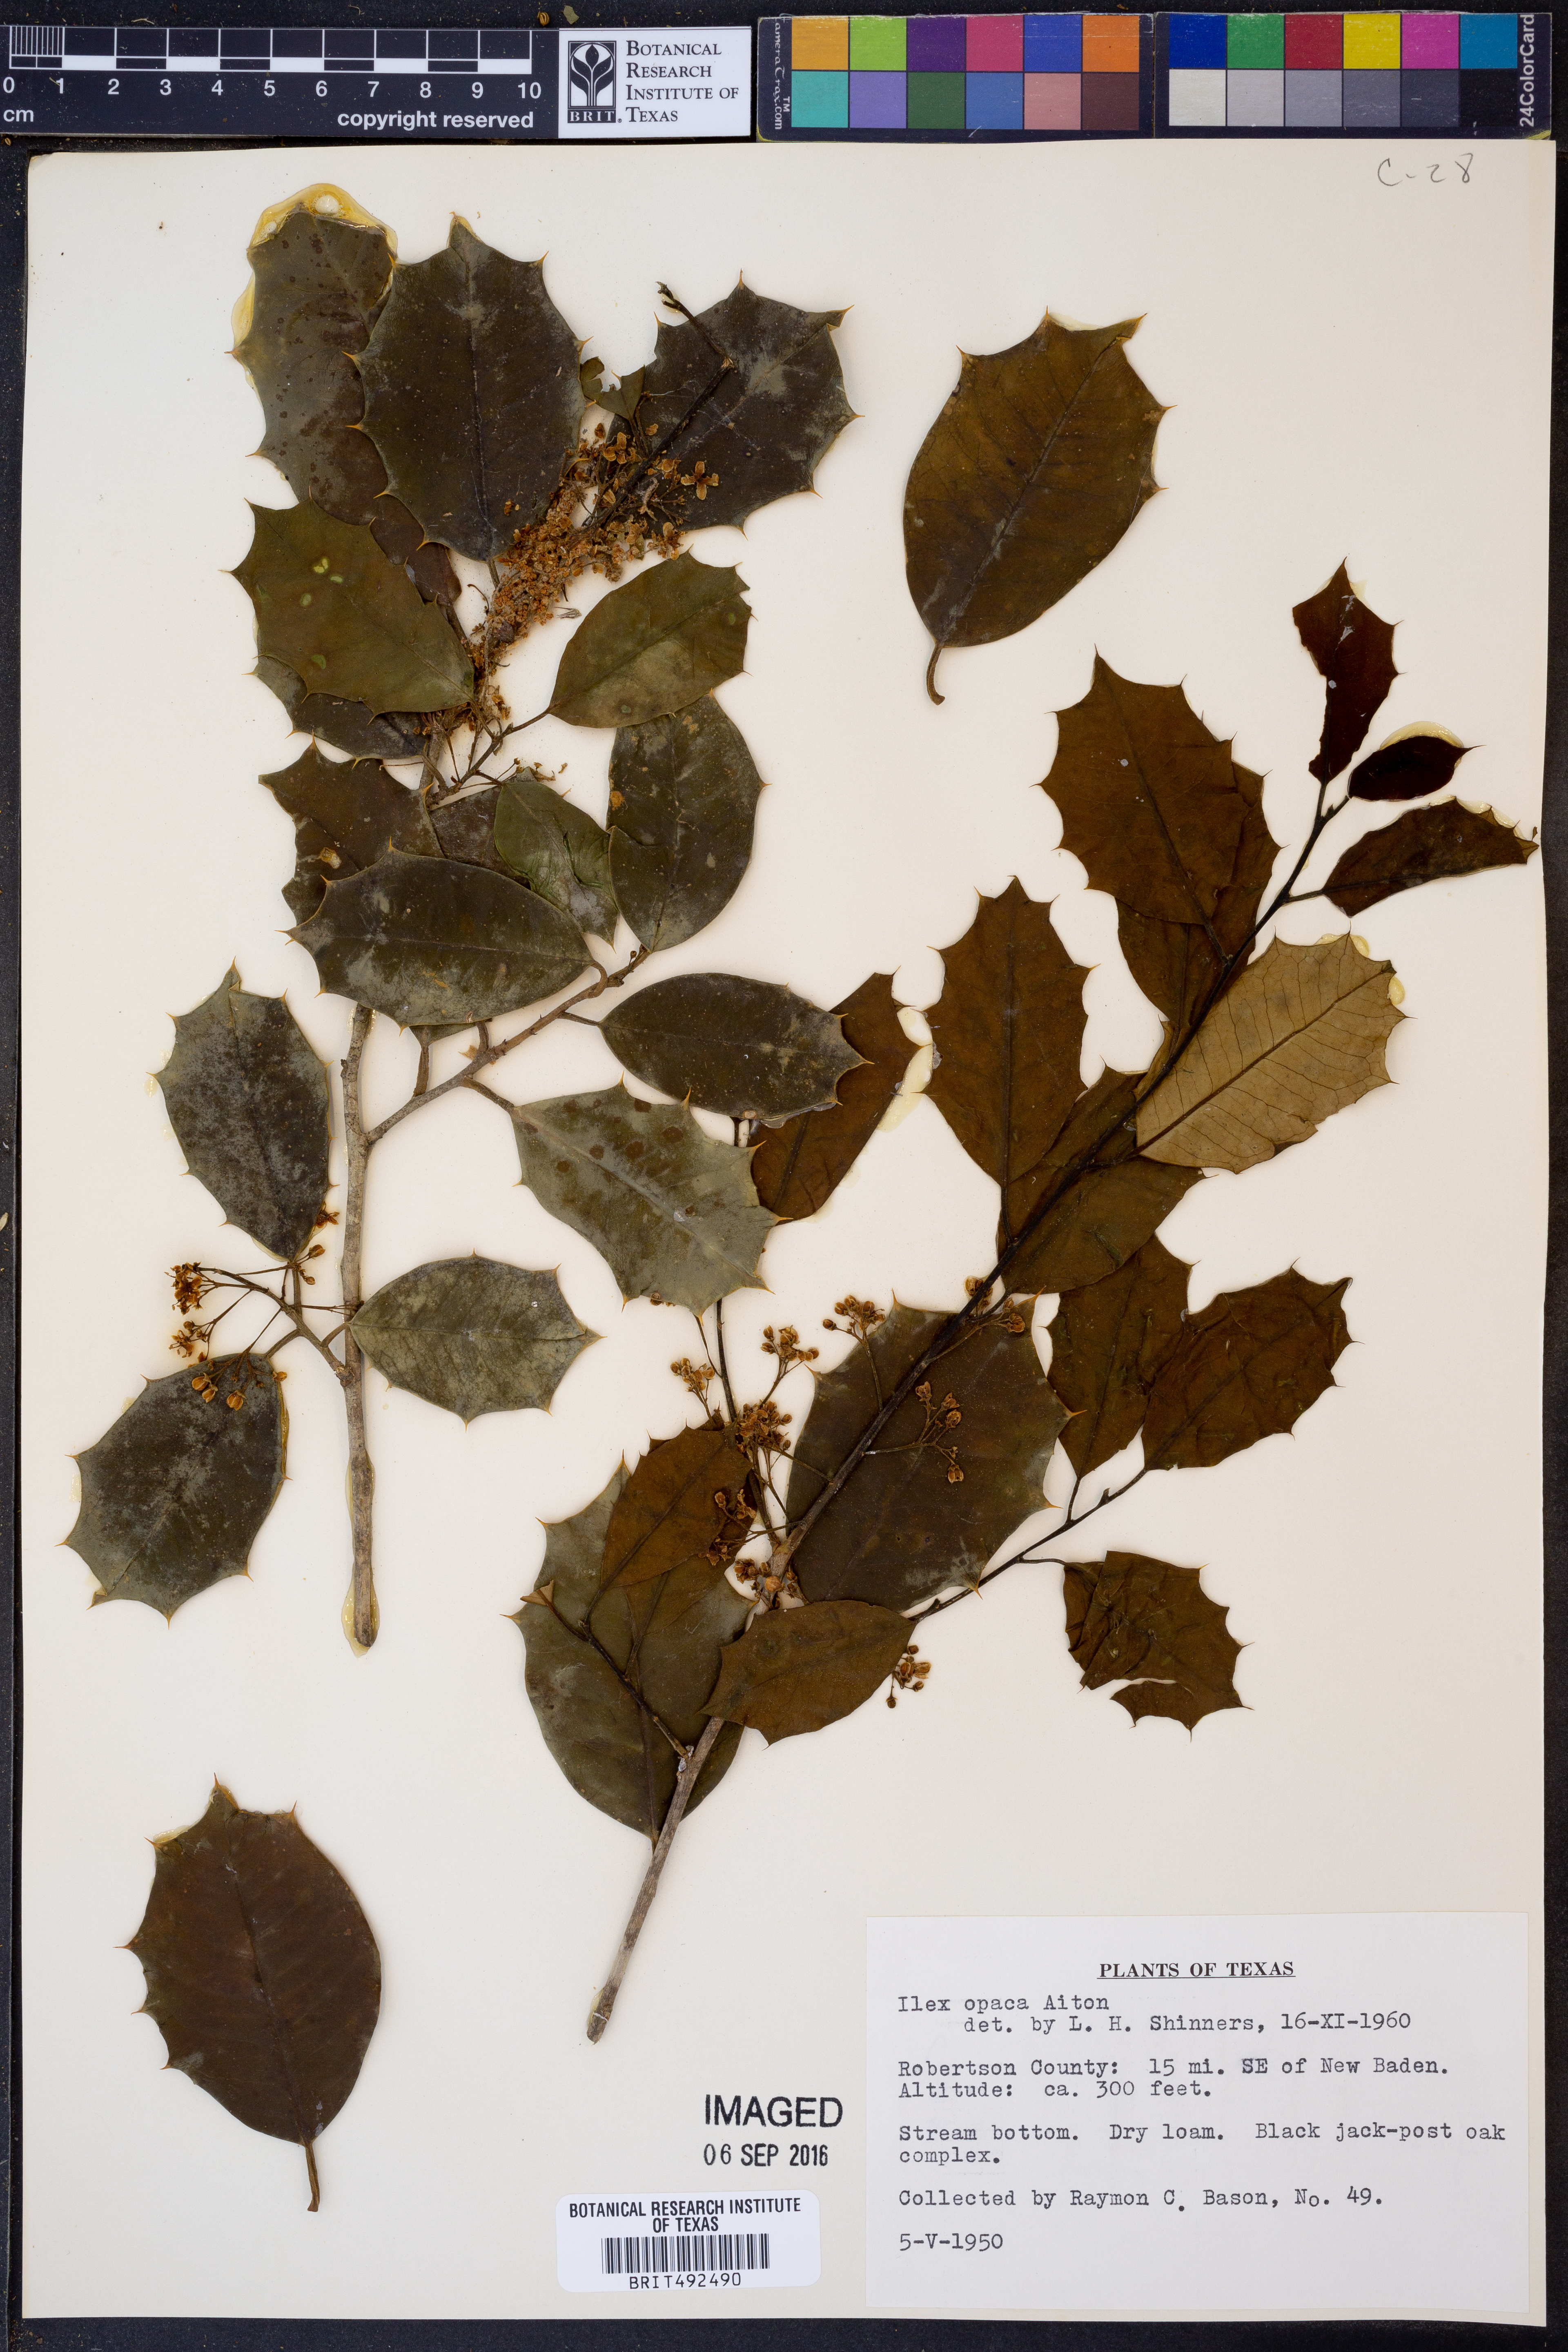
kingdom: Plantae
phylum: Tracheophyta
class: Magnoliopsida
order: Aquifoliales
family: Aquifoliaceae
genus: Ilex
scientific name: Ilex opaca
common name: American holly
